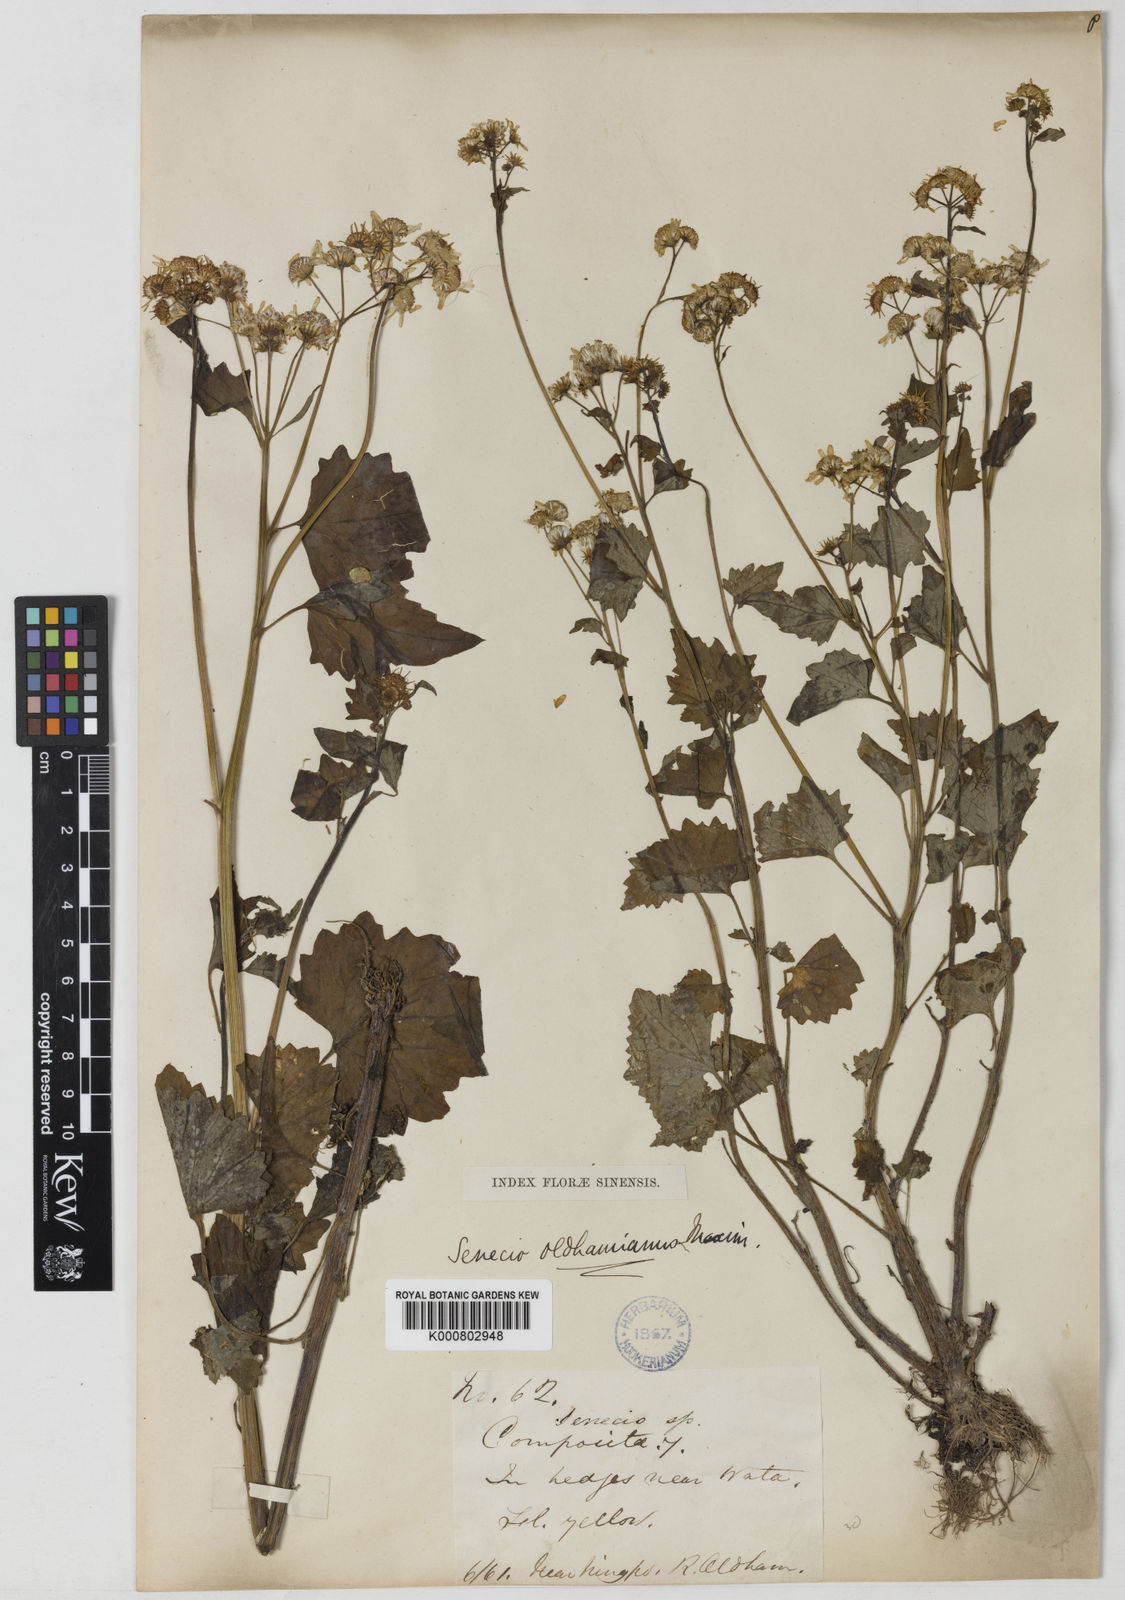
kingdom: Plantae
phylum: Tracheophyta
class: Magnoliopsida
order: Asterales
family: Asteraceae
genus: Sinosenecio
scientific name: Sinosenecio oldhamianus
